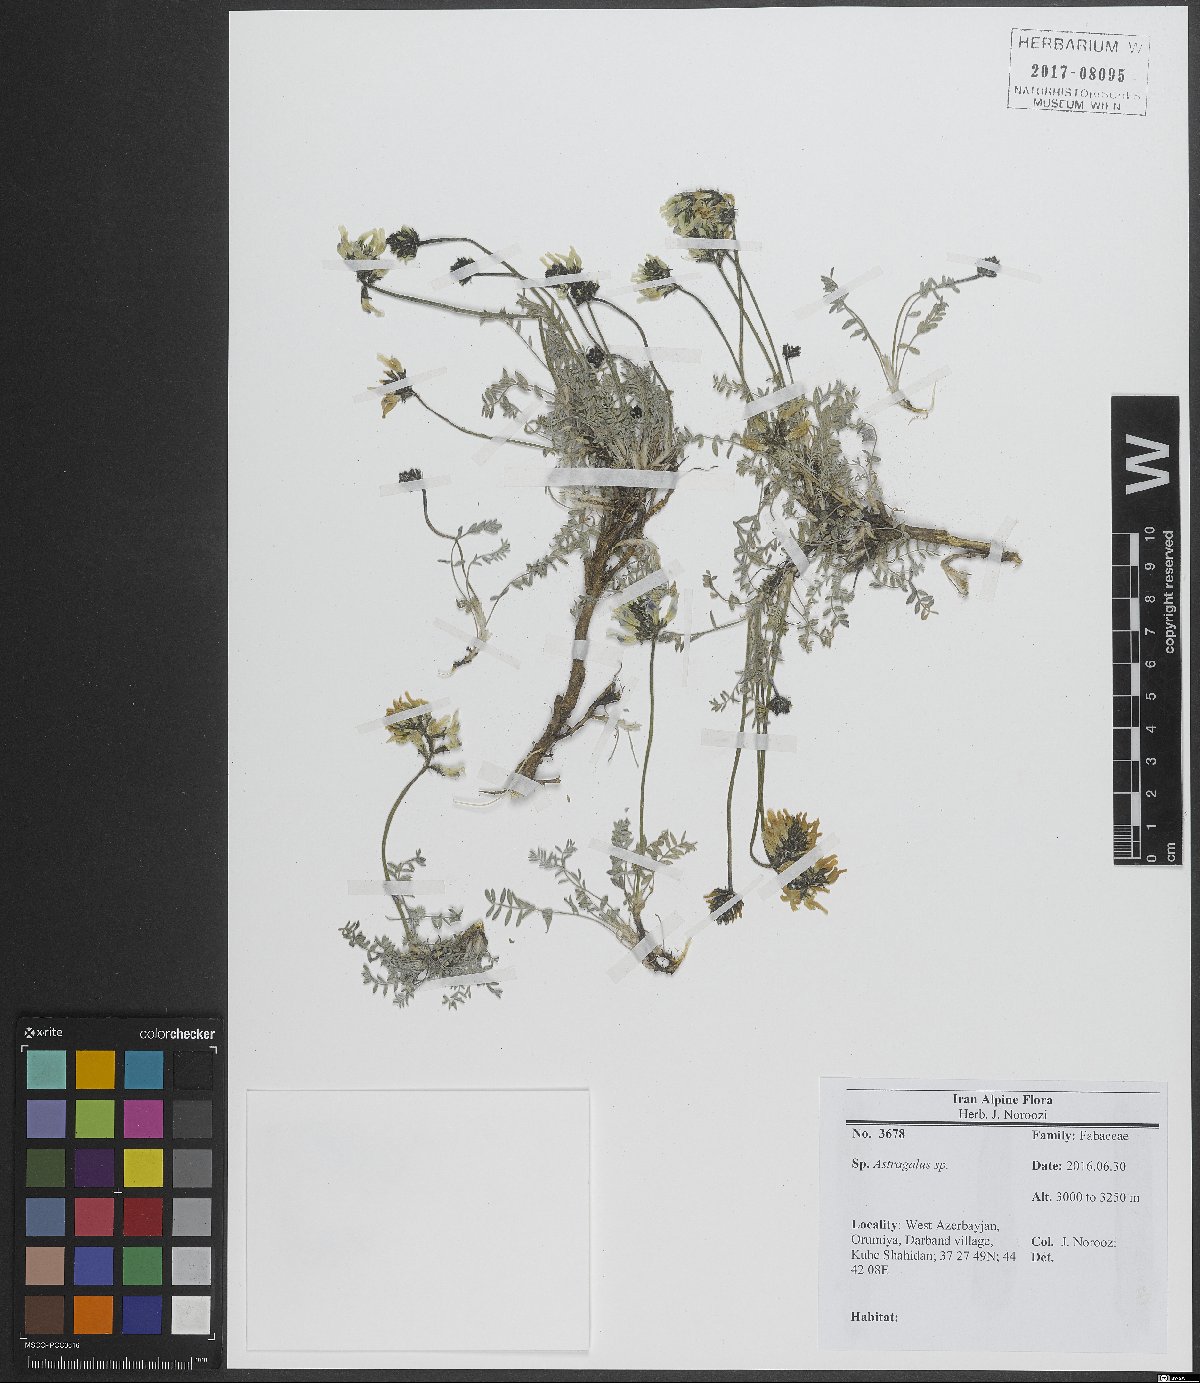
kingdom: Plantae
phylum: Tracheophyta
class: Magnoliopsida
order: Fabales
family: Fabaceae
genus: Astragalus
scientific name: Astragalus
